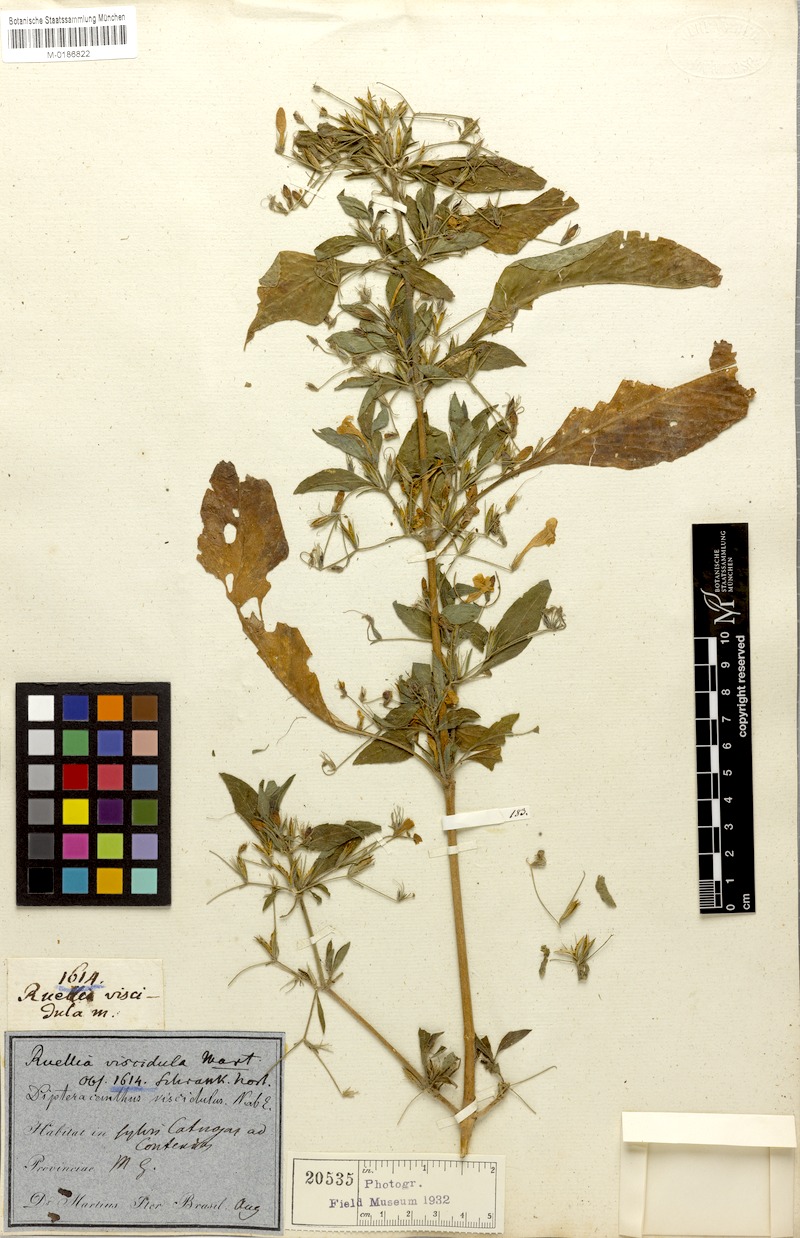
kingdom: Plantae
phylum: Tracheophyta
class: Magnoliopsida
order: Lamiales
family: Acanthaceae
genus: Ruellia
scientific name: Ruellia viscidula
